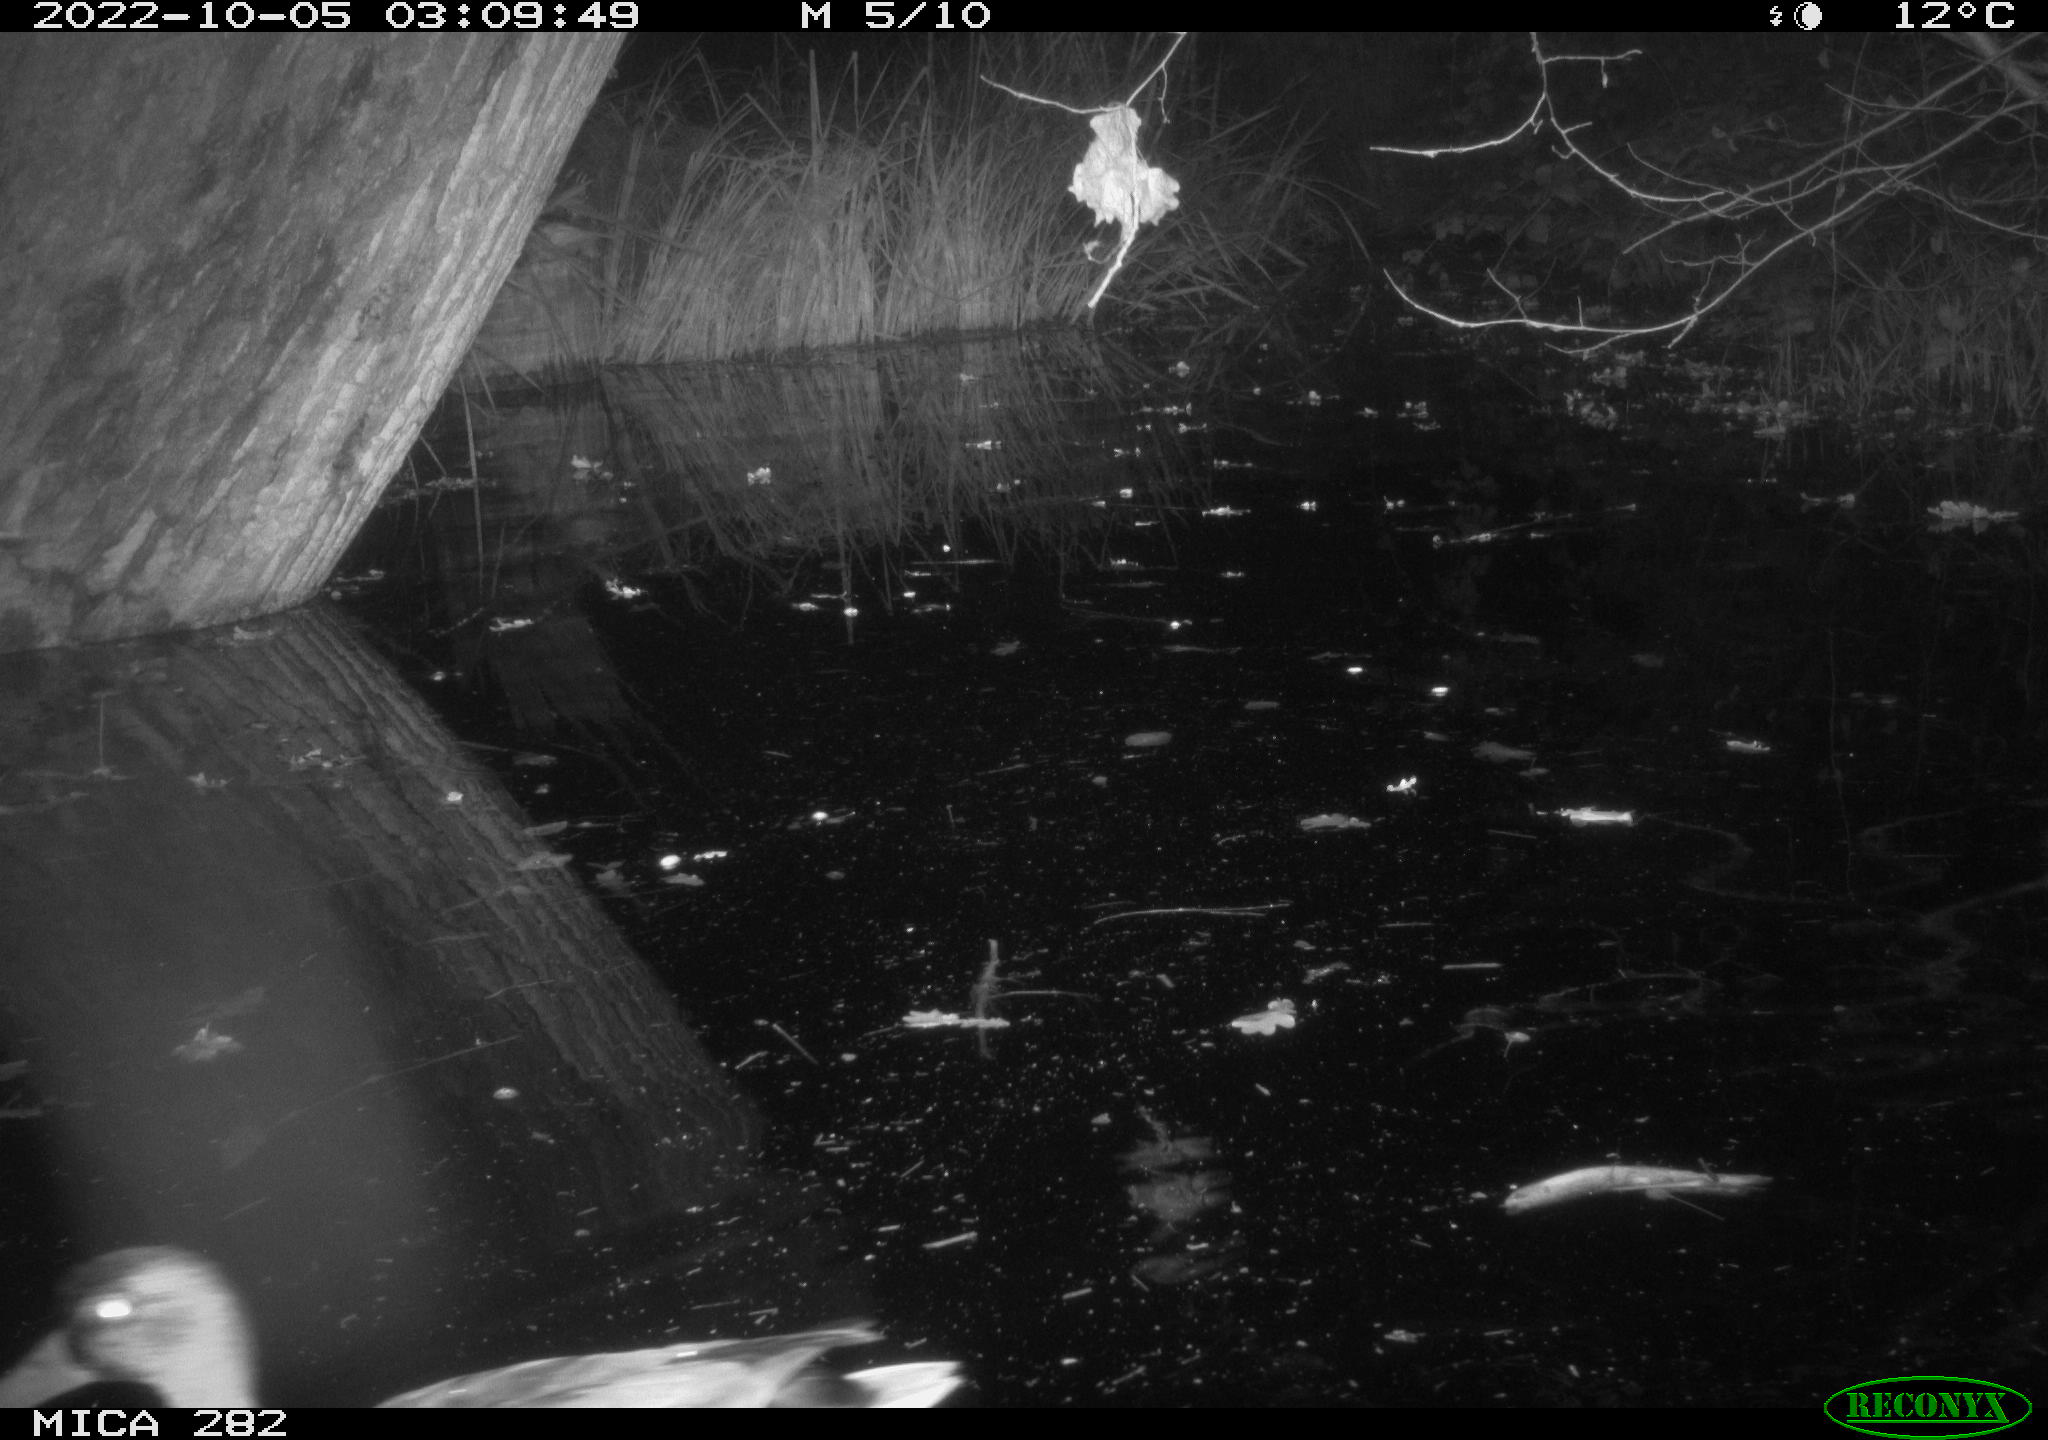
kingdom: Animalia
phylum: Chordata
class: Aves
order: Anseriformes
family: Anatidae
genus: Anas
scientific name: Anas
